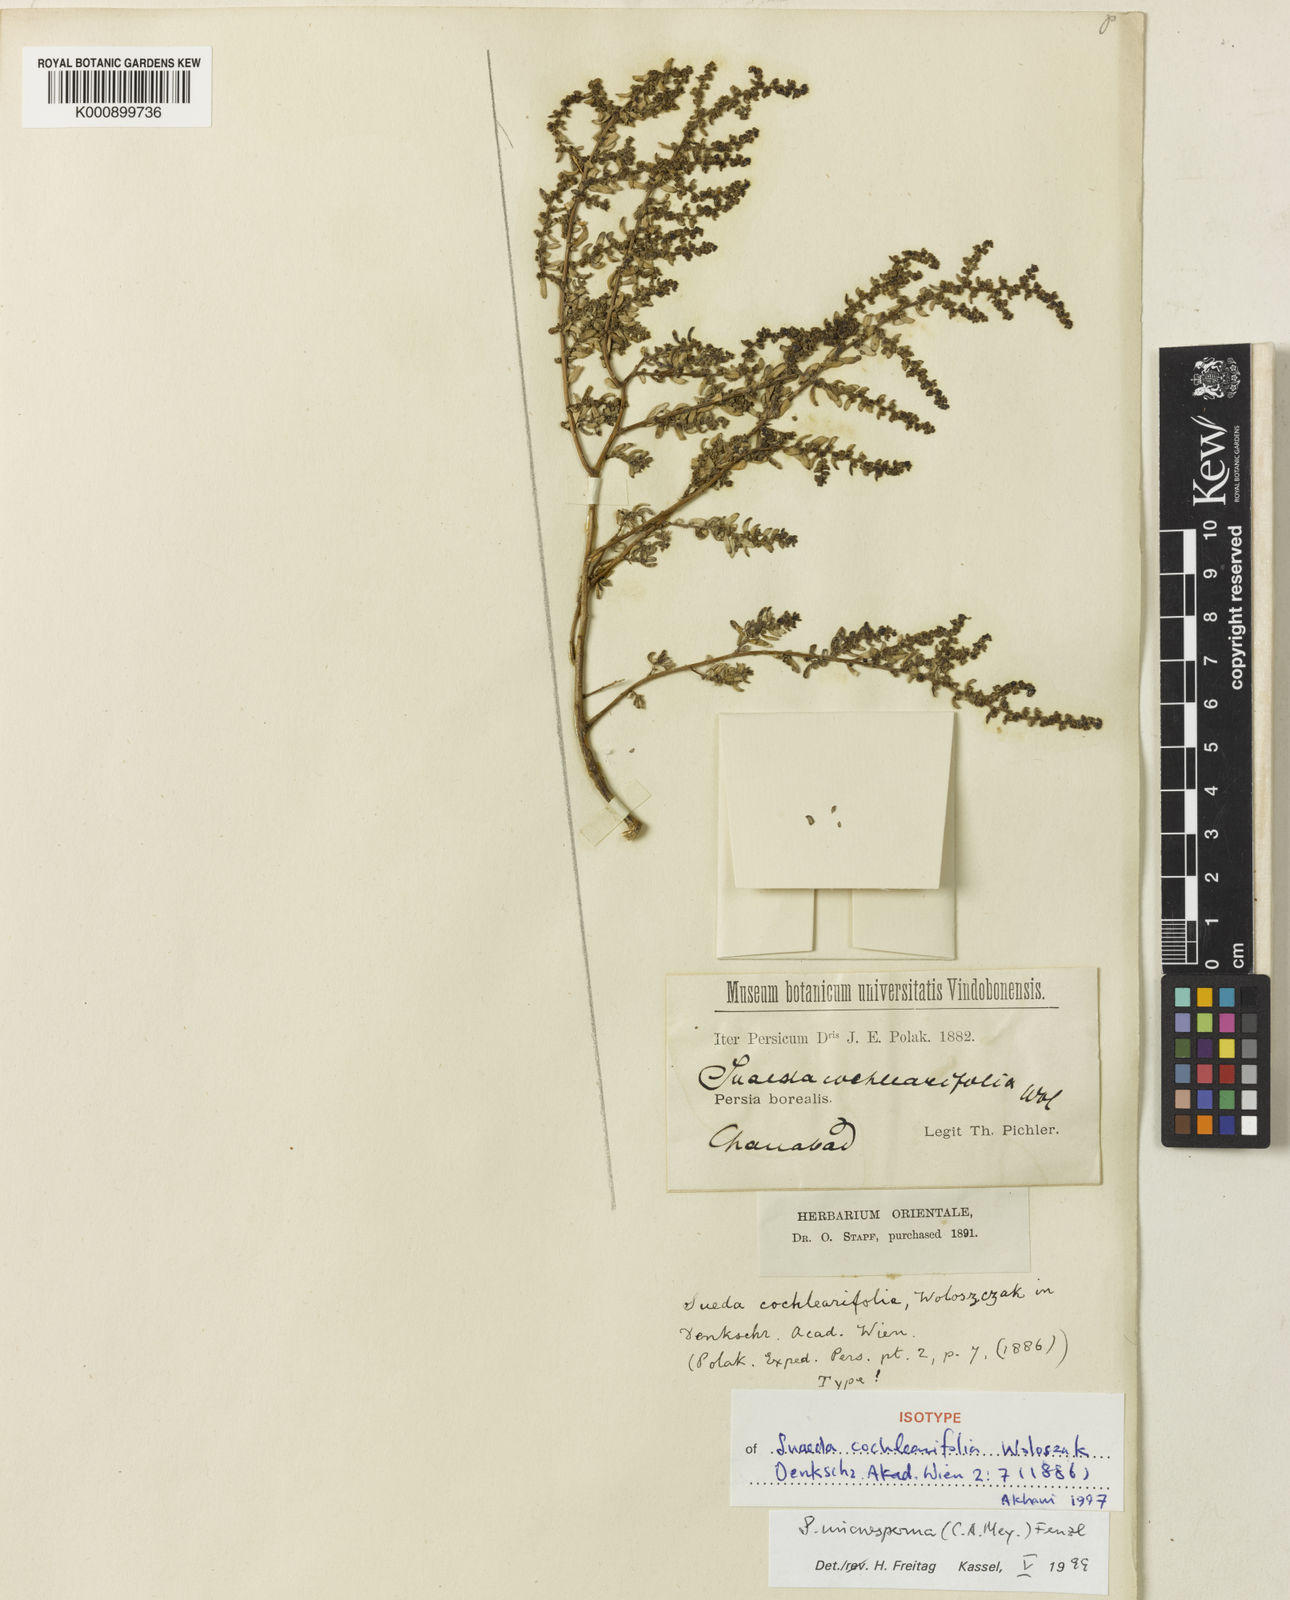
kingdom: Plantae
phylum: Tracheophyta
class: Magnoliopsida
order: Caryophyllales
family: Amaranthaceae
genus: Suaeda
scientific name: Suaeda acuminata
